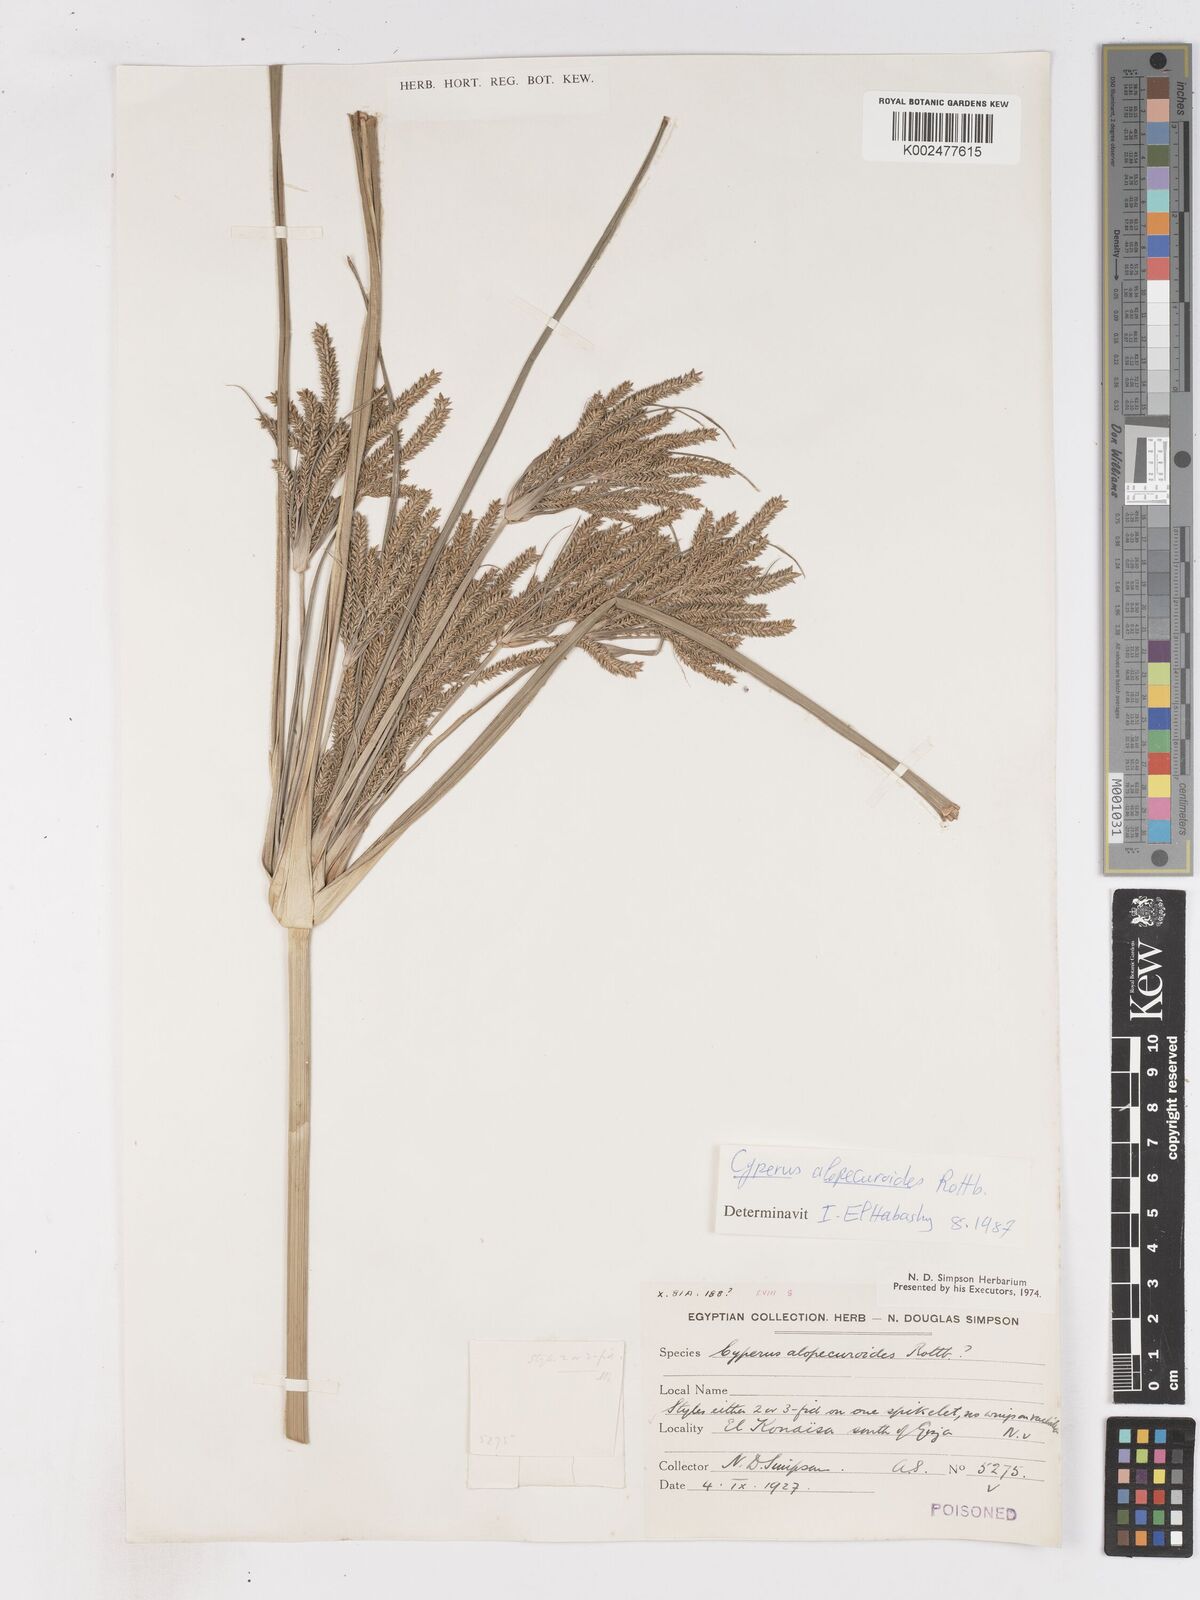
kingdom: Plantae
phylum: Tracheophyta
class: Liliopsida
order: Poales
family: Cyperaceae
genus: Cyperus
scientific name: Cyperus dives
